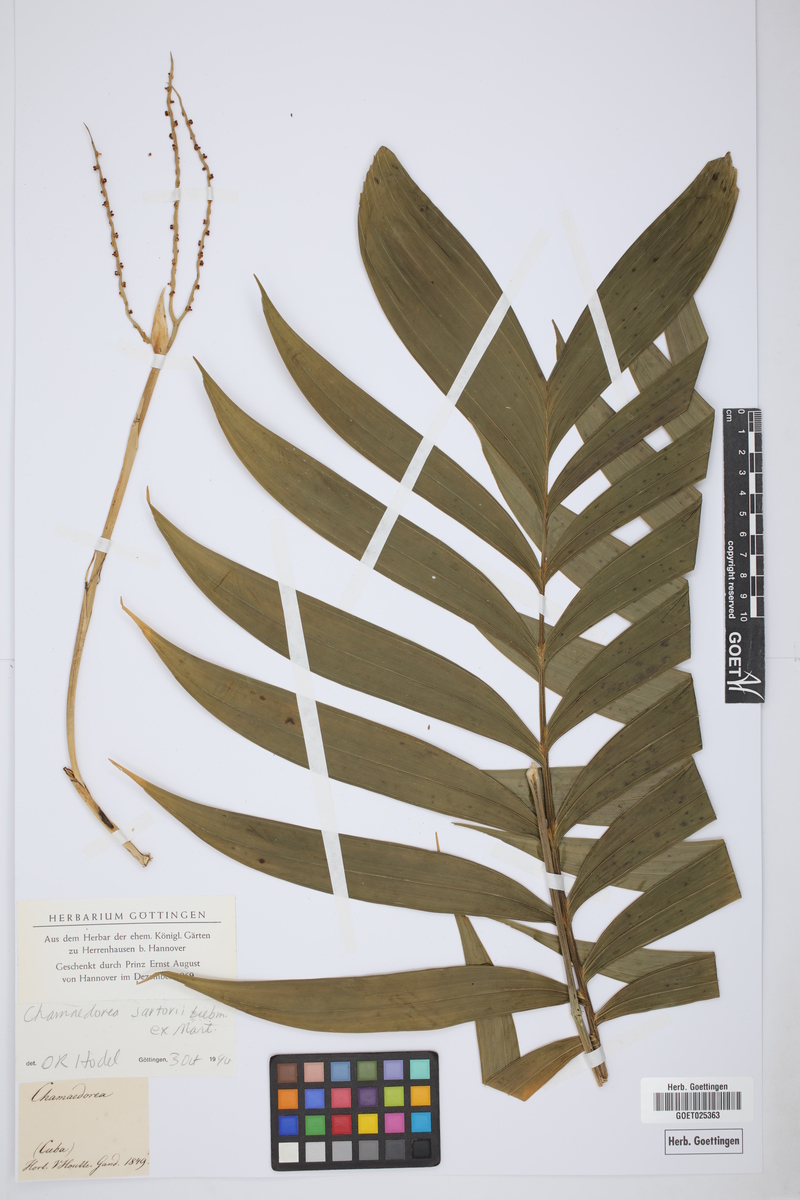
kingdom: Plantae
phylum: Tracheophyta
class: Liliopsida
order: Arecales
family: Arecaceae
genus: Chamaedorea
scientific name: Chamaedorea sartorii
